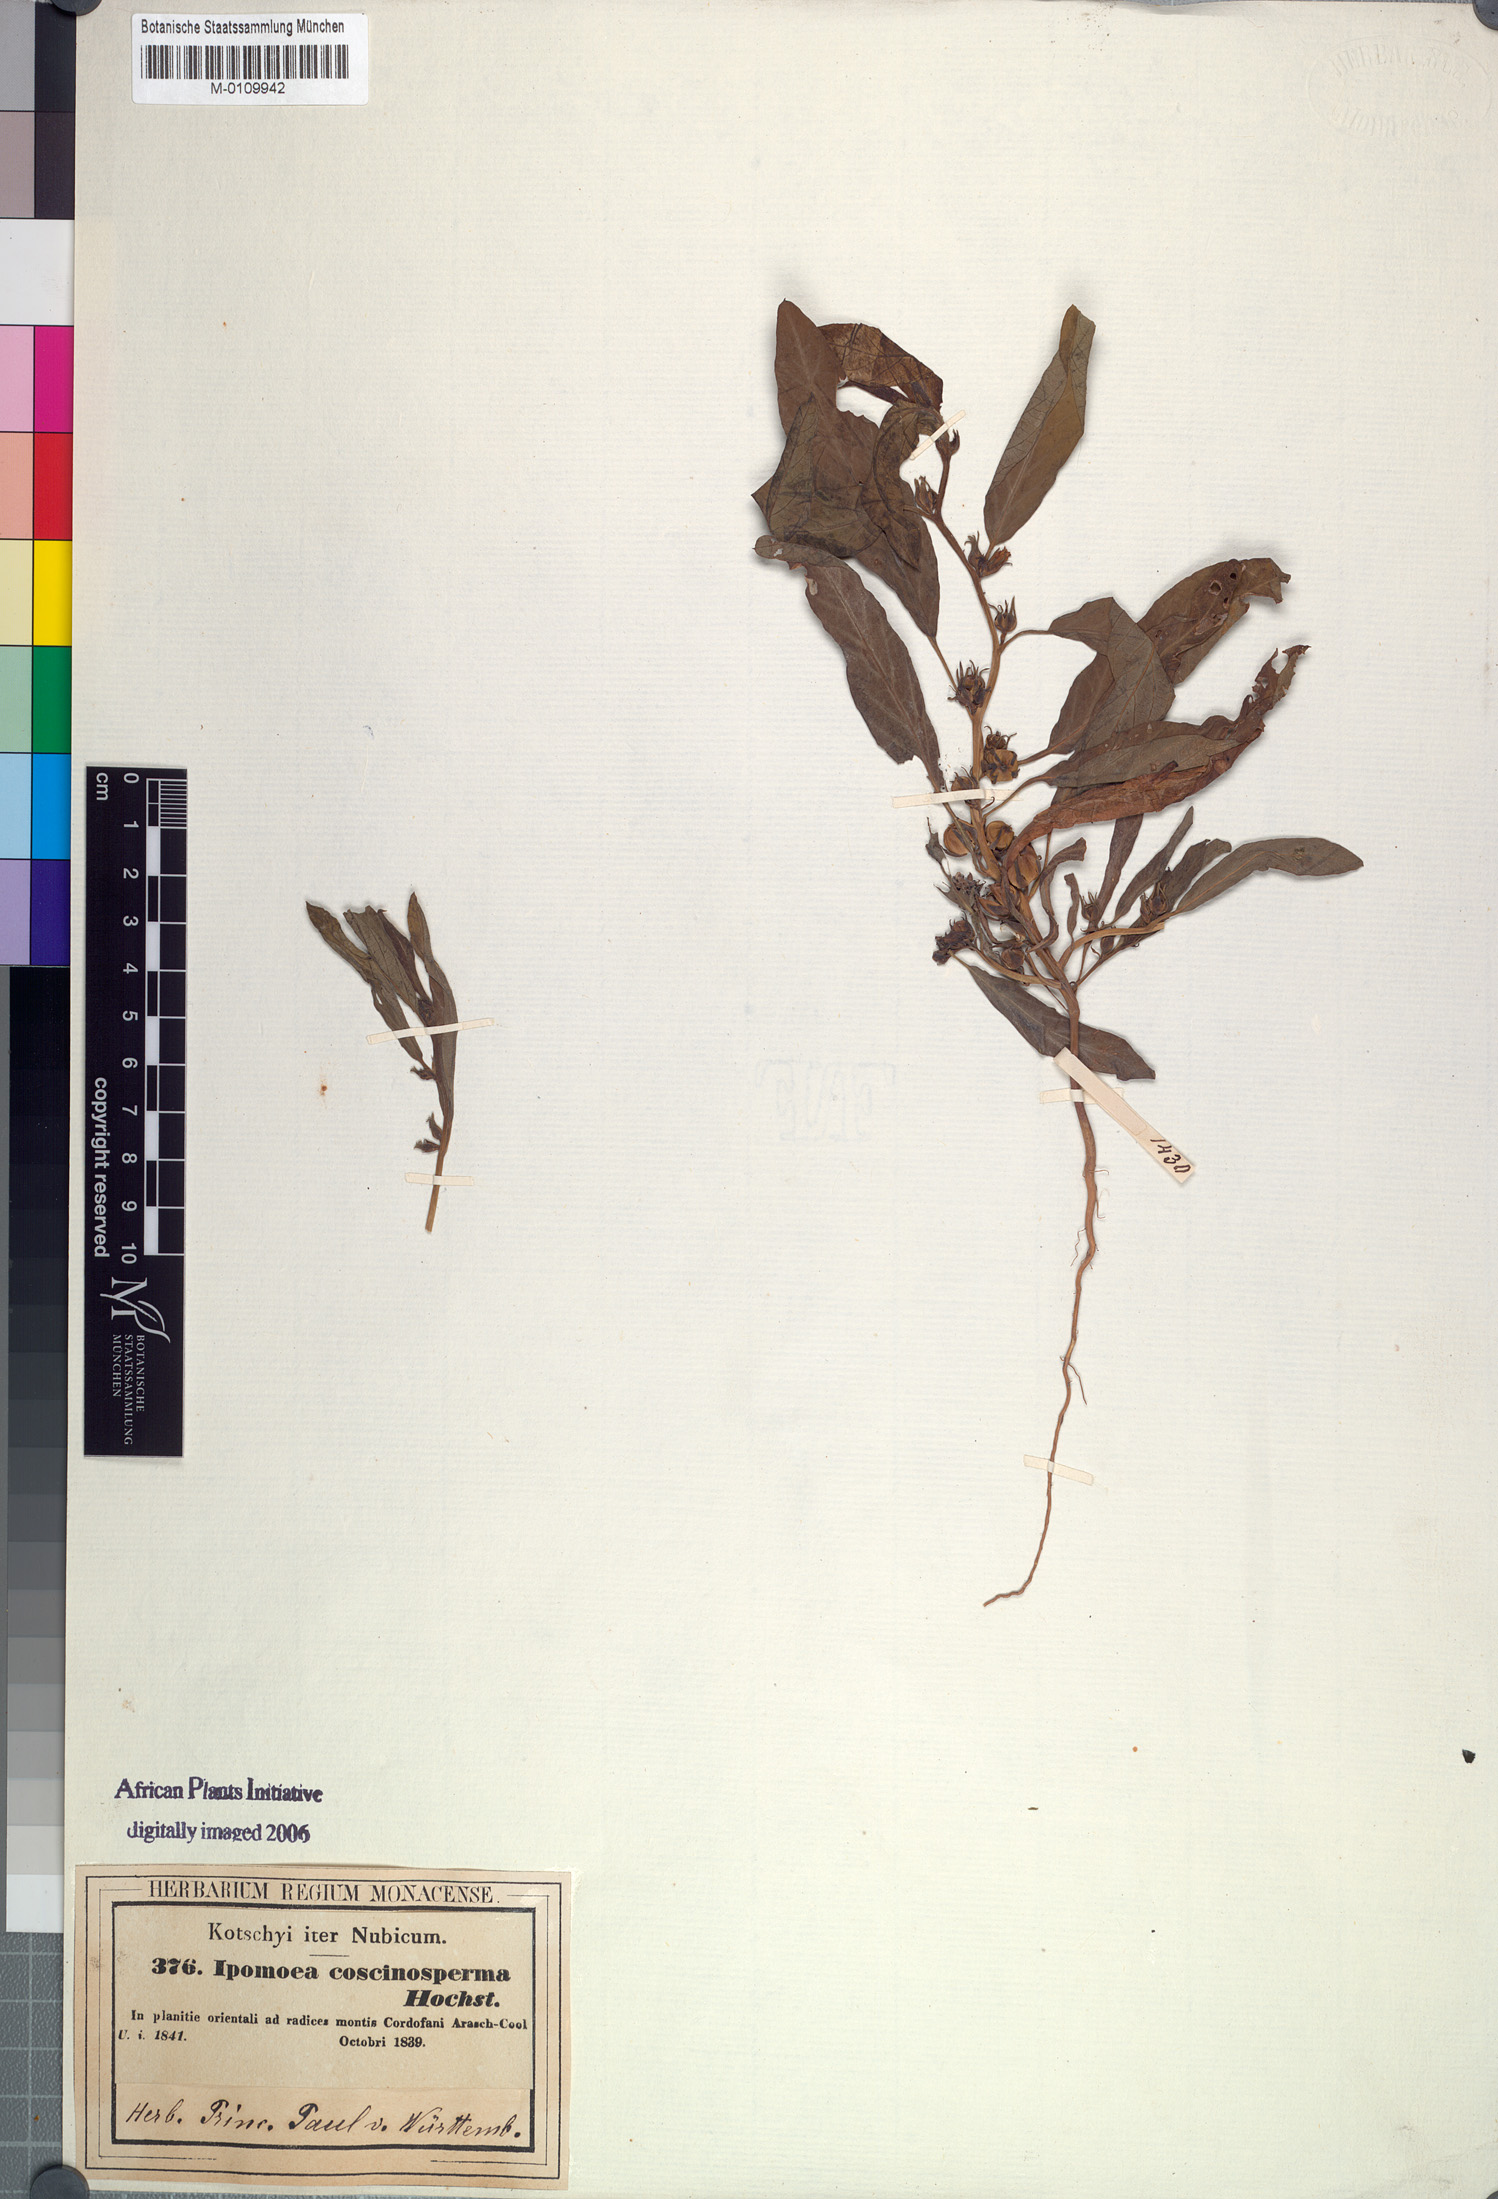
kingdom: Plantae
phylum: Tracheophyta
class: Magnoliopsida
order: Solanales
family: Convolvulaceae
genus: Ipomoea
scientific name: Ipomoea coscinosperma
